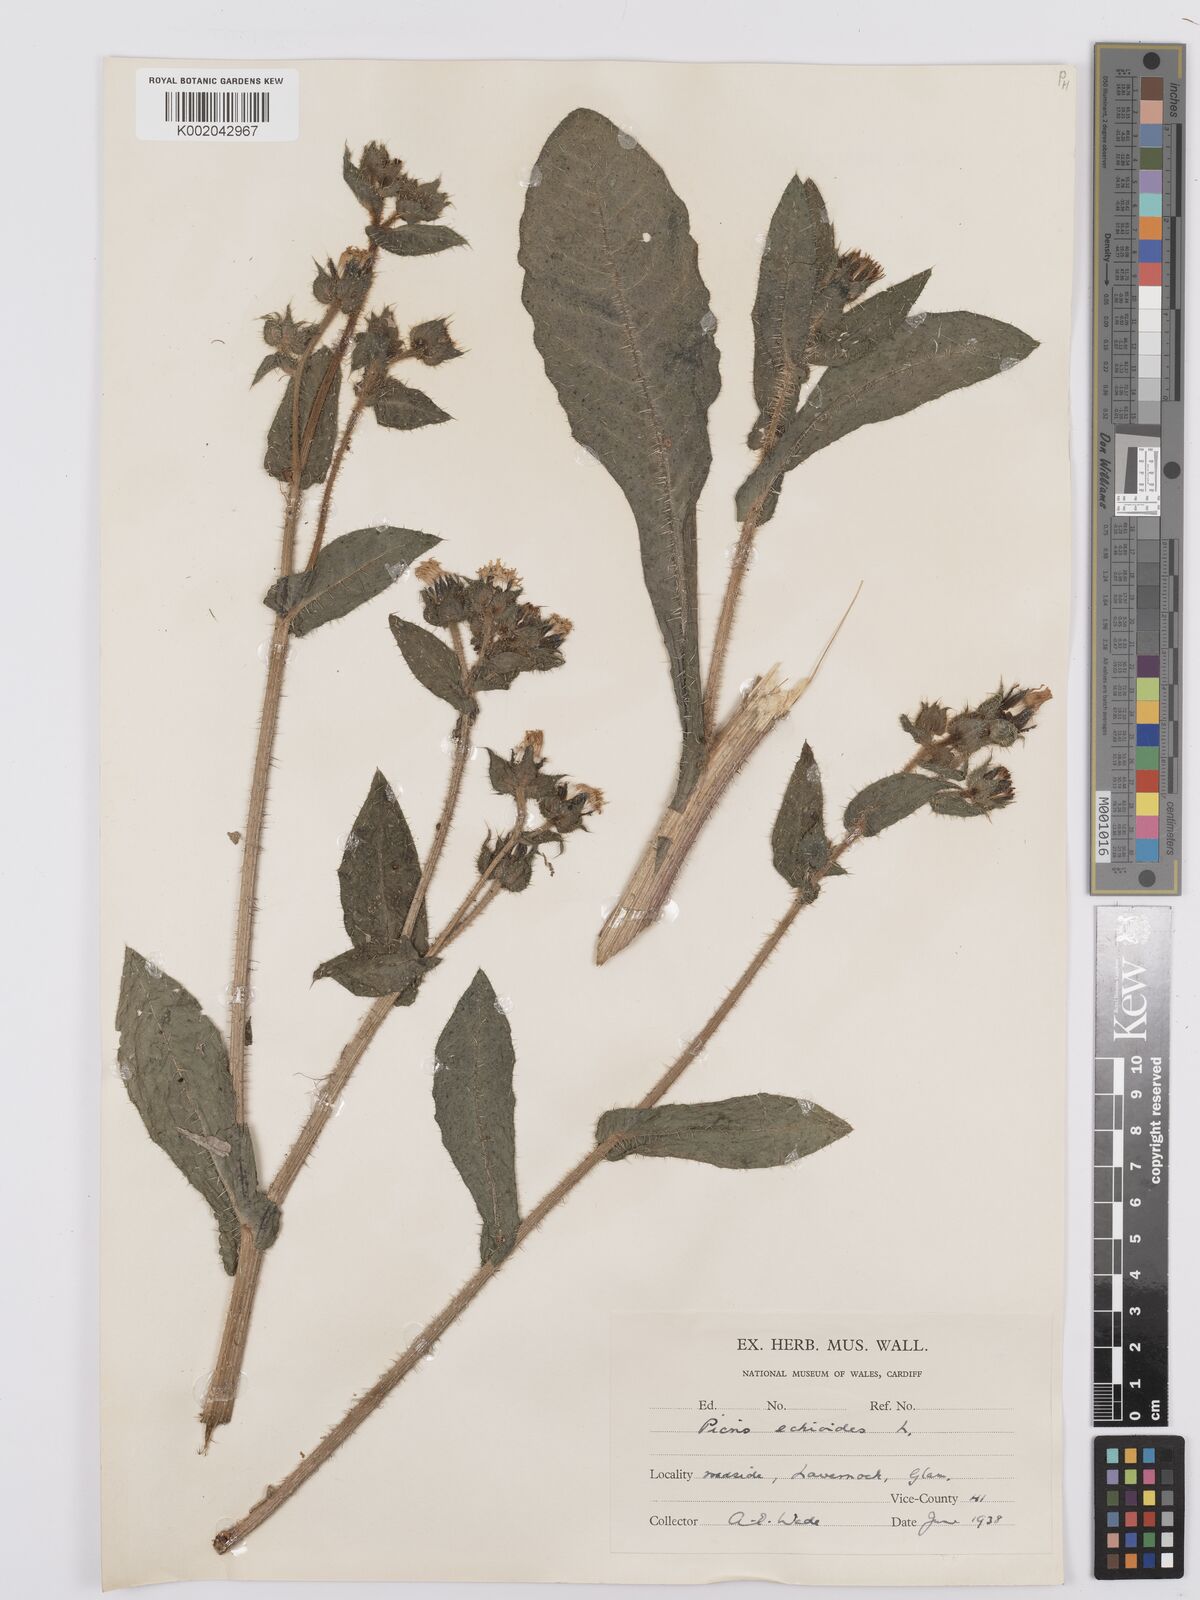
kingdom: Plantae
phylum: Tracheophyta
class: Magnoliopsida
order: Asterales
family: Asteraceae
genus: Helminthotheca
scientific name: Helminthotheca echioides
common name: Ox-tongue
